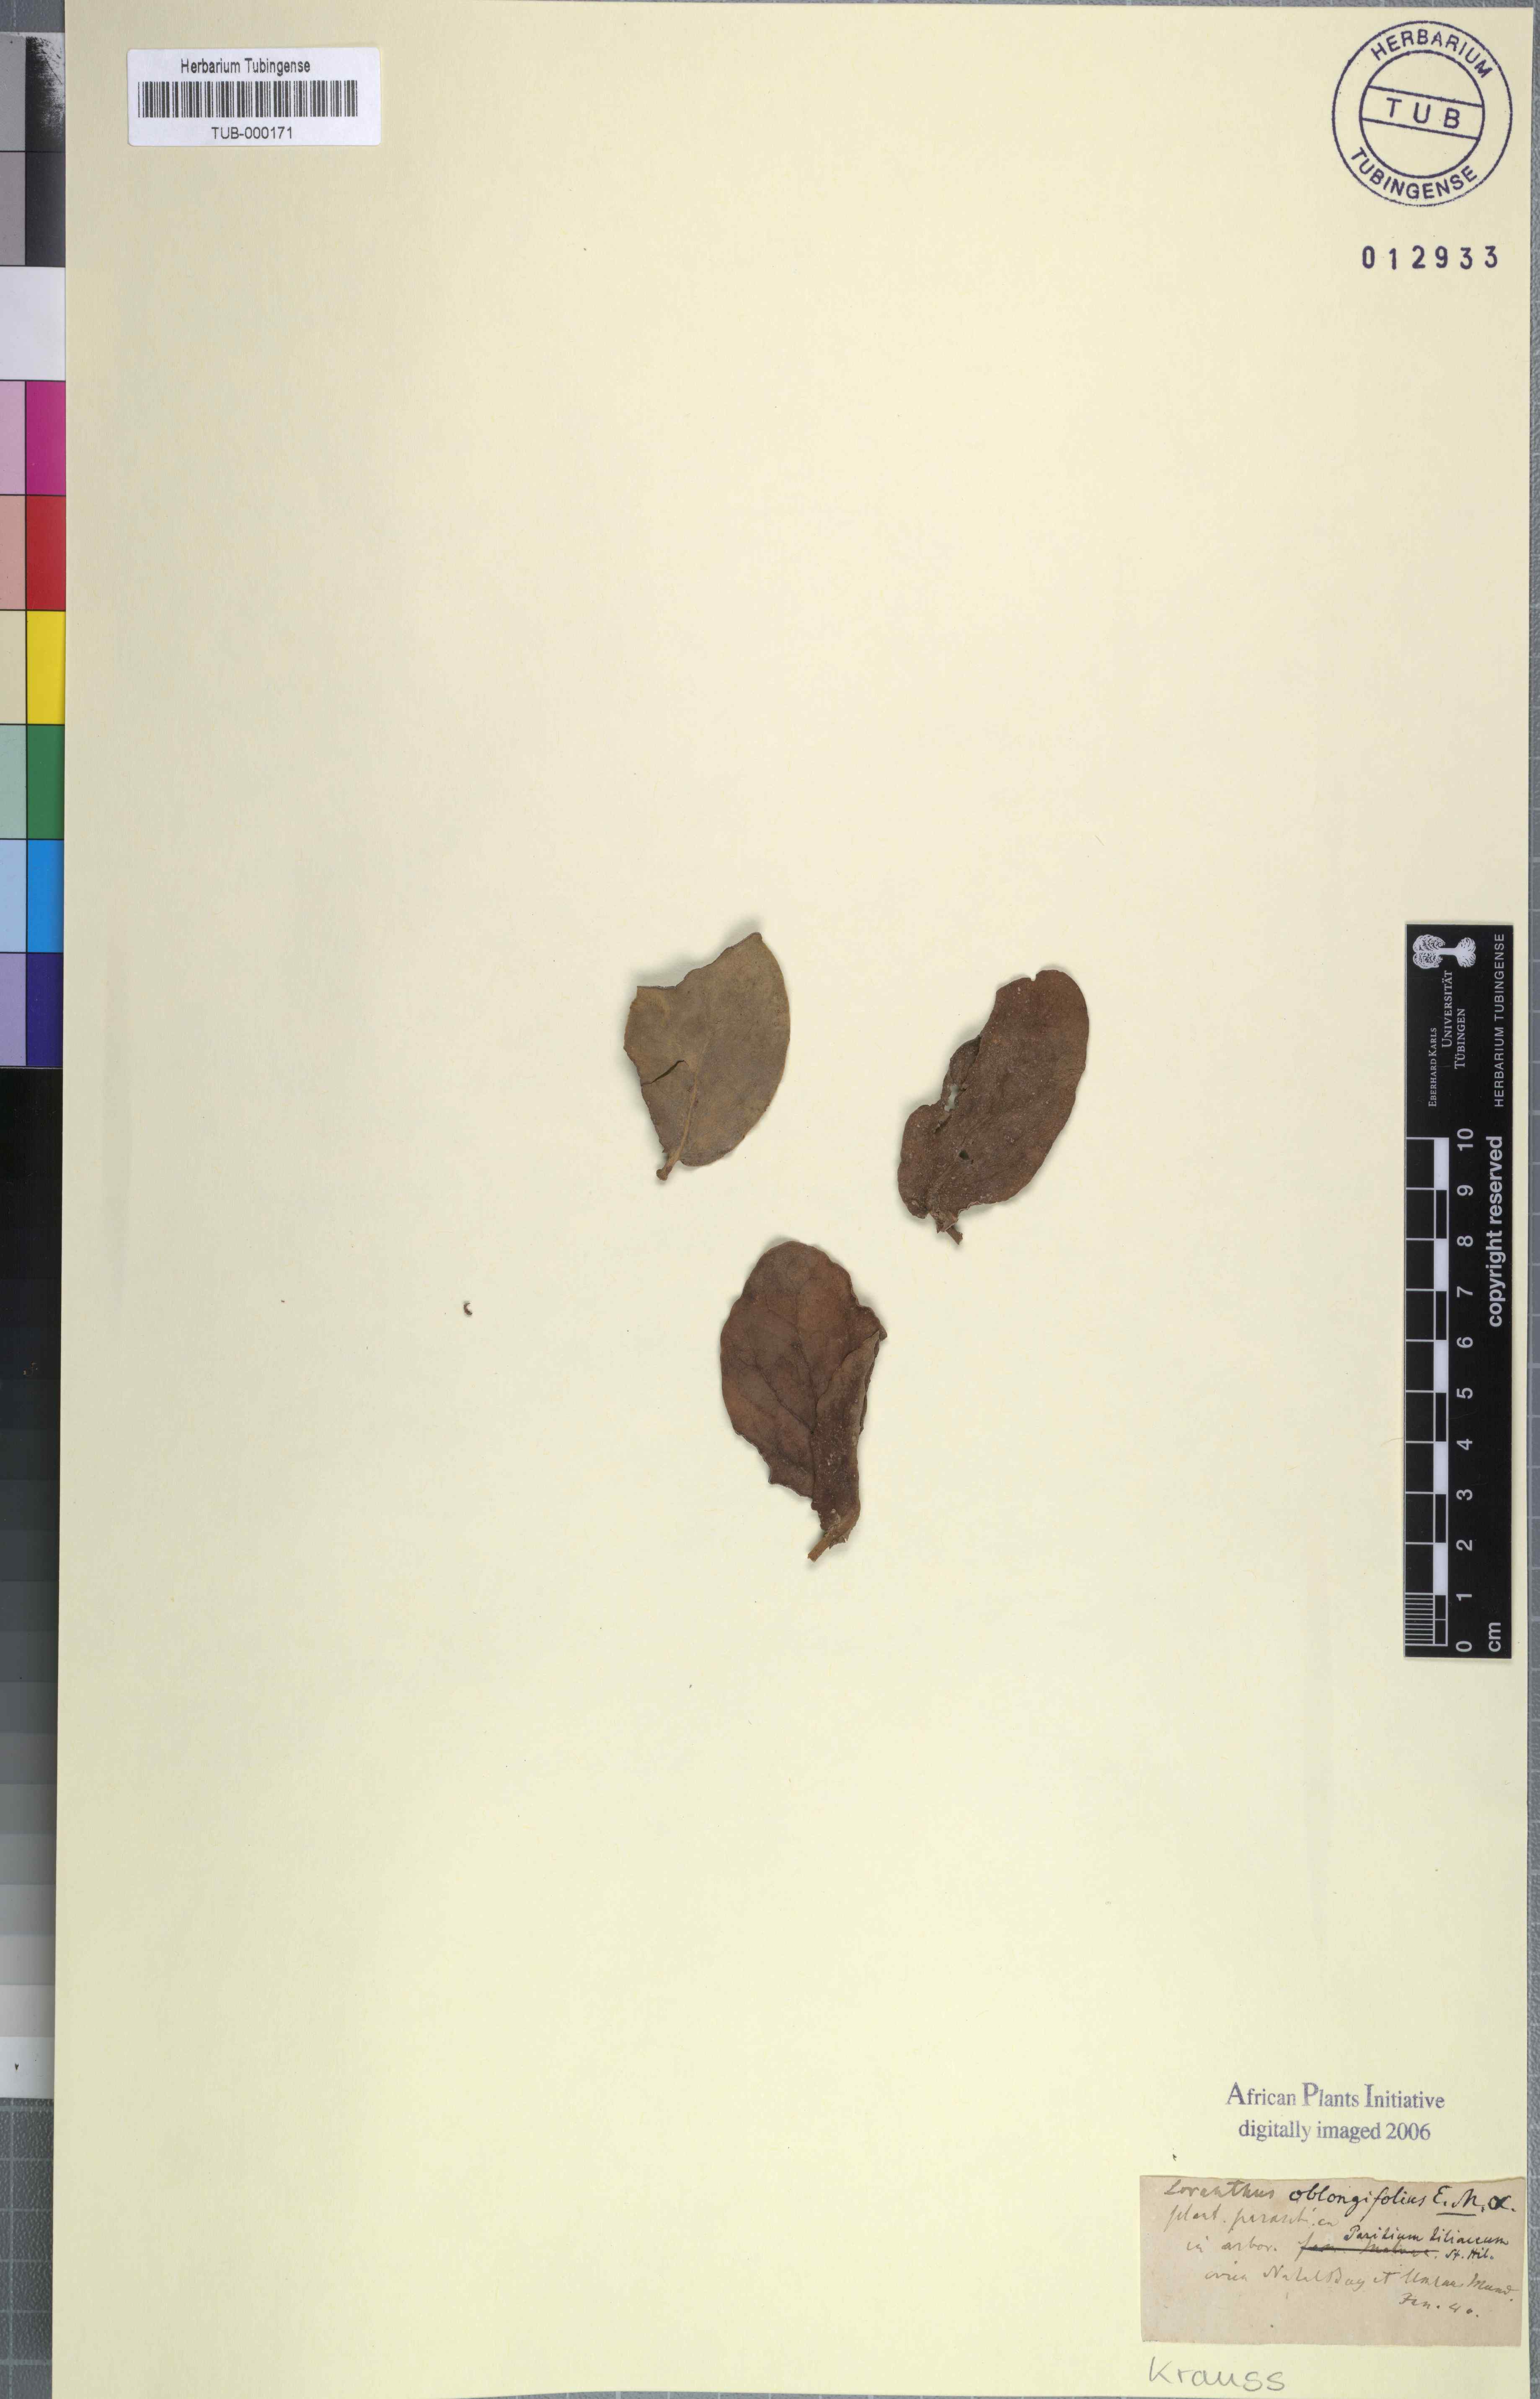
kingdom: Plantae
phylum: Tracheophyta
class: Magnoliopsida
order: Santalales
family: Loranthaceae
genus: Tapinanthus
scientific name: Tapinanthus oleifolius
